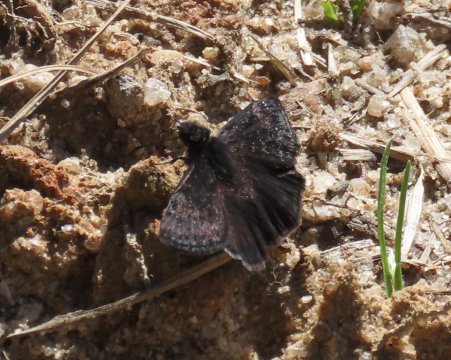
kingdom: Animalia
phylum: Arthropoda
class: Insecta
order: Lepidoptera
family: Hesperiidae
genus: Gesta
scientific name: Gesta
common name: Juvenal's Duskywing
